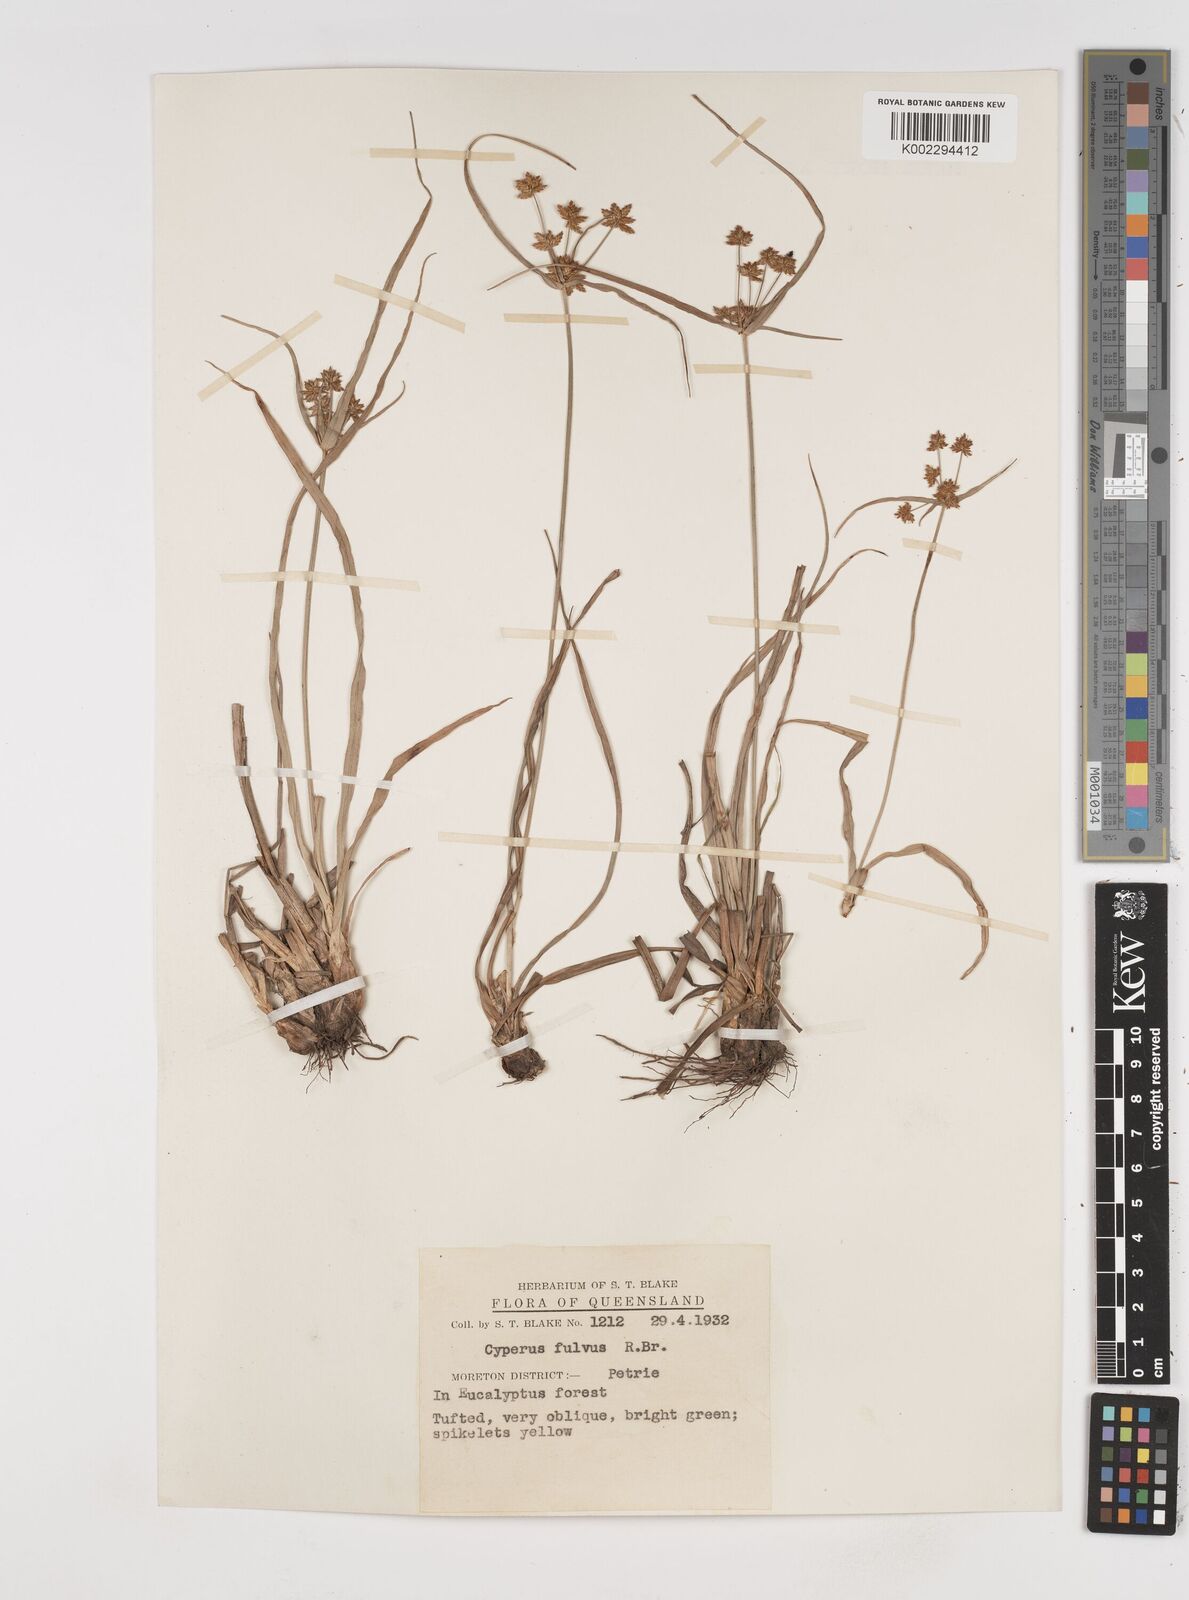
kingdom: Plantae
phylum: Tracheophyta
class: Liliopsida
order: Poales
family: Cyperaceae
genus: Cyperus
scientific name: Cyperus fulvus
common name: Sticky sedge
